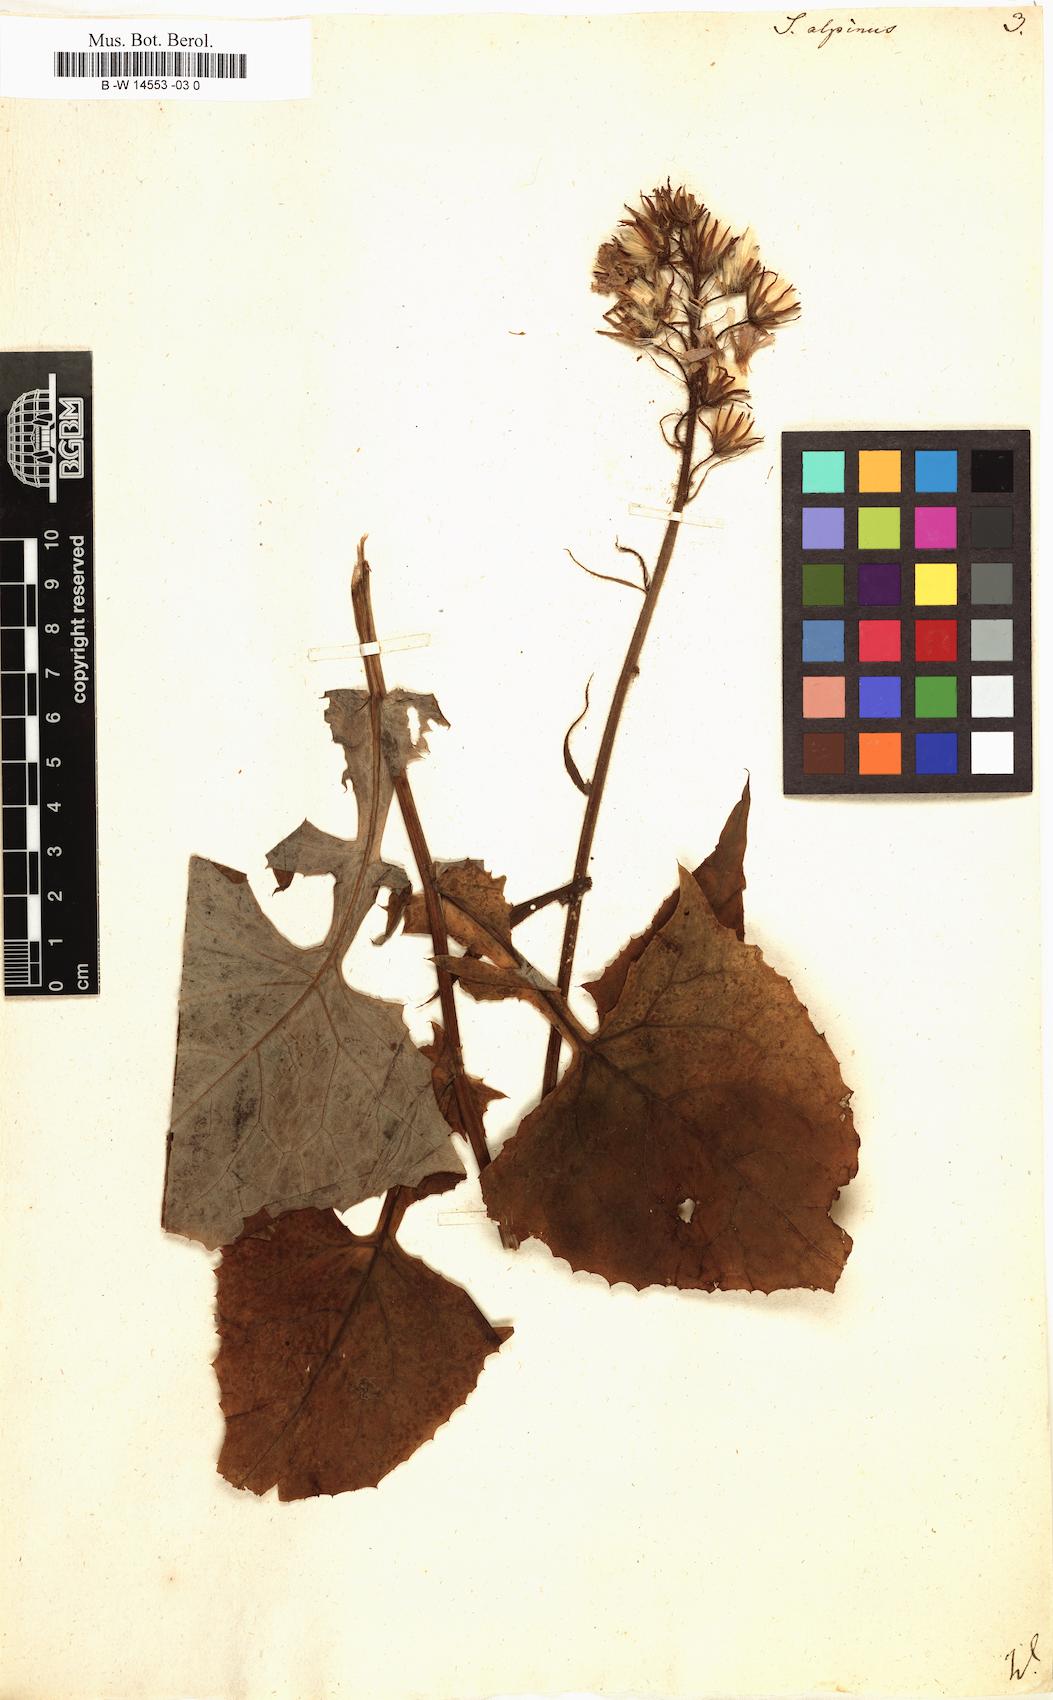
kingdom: Plantae
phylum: Tracheophyta
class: Magnoliopsida
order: Asterales
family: Asteraceae
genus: Cicerbita
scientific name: Cicerbita alpina
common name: Alpine blue-sow-thistle
